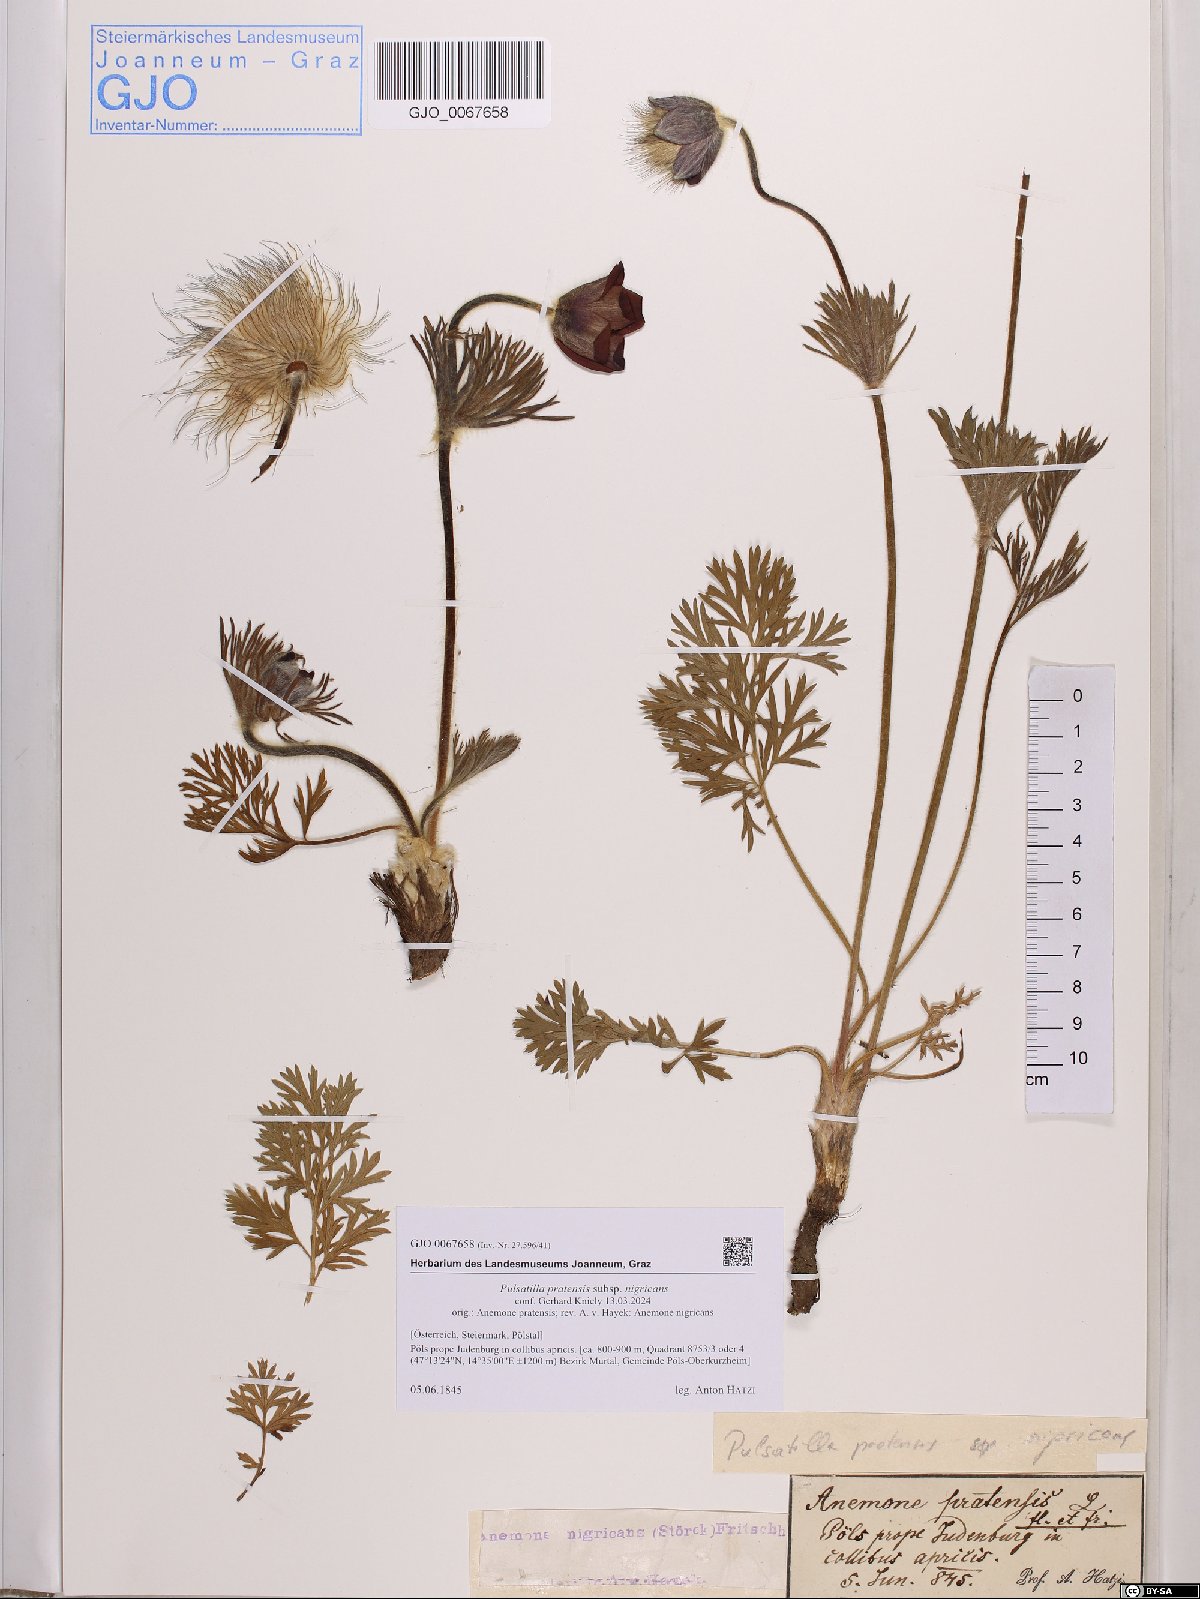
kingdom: Plantae
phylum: Tracheophyta
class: Magnoliopsida
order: Ranunculales
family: Ranunculaceae
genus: Pulsatilla
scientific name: Pulsatilla pratensis
